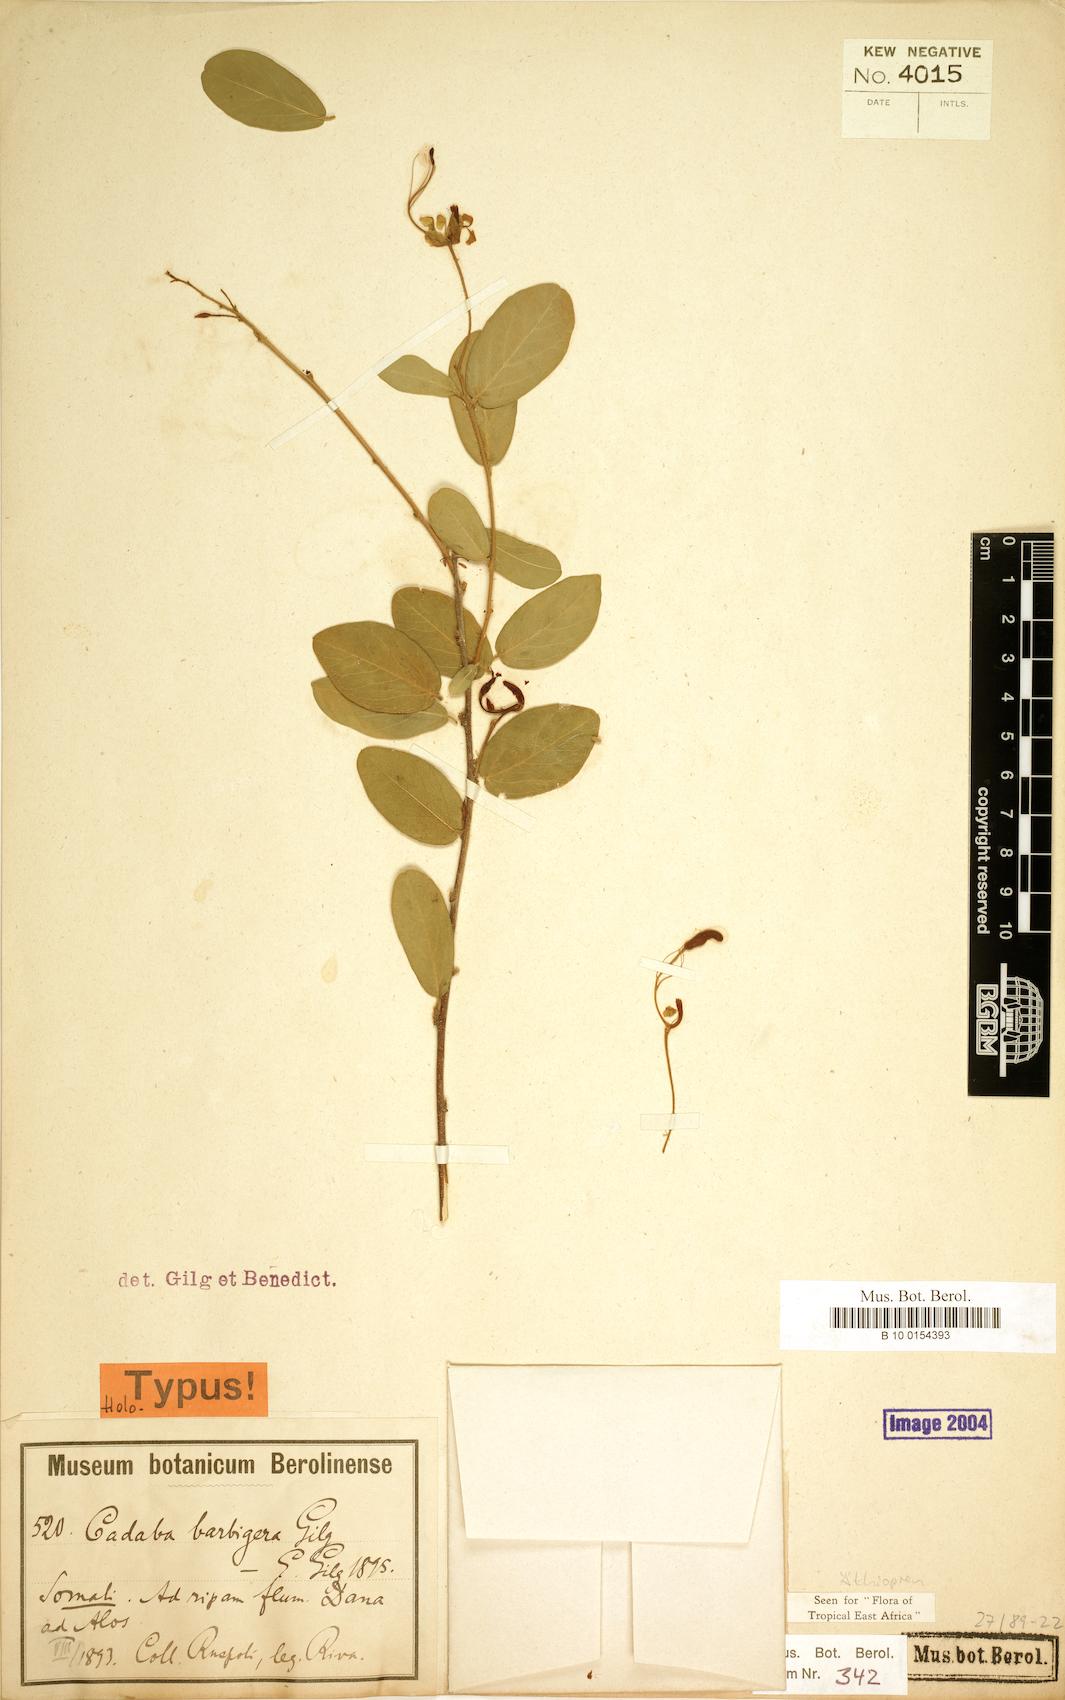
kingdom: Plantae
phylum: Tracheophyta
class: Magnoliopsida
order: Brassicales
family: Capparaceae
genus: Cadaba
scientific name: Cadaba barbigera
